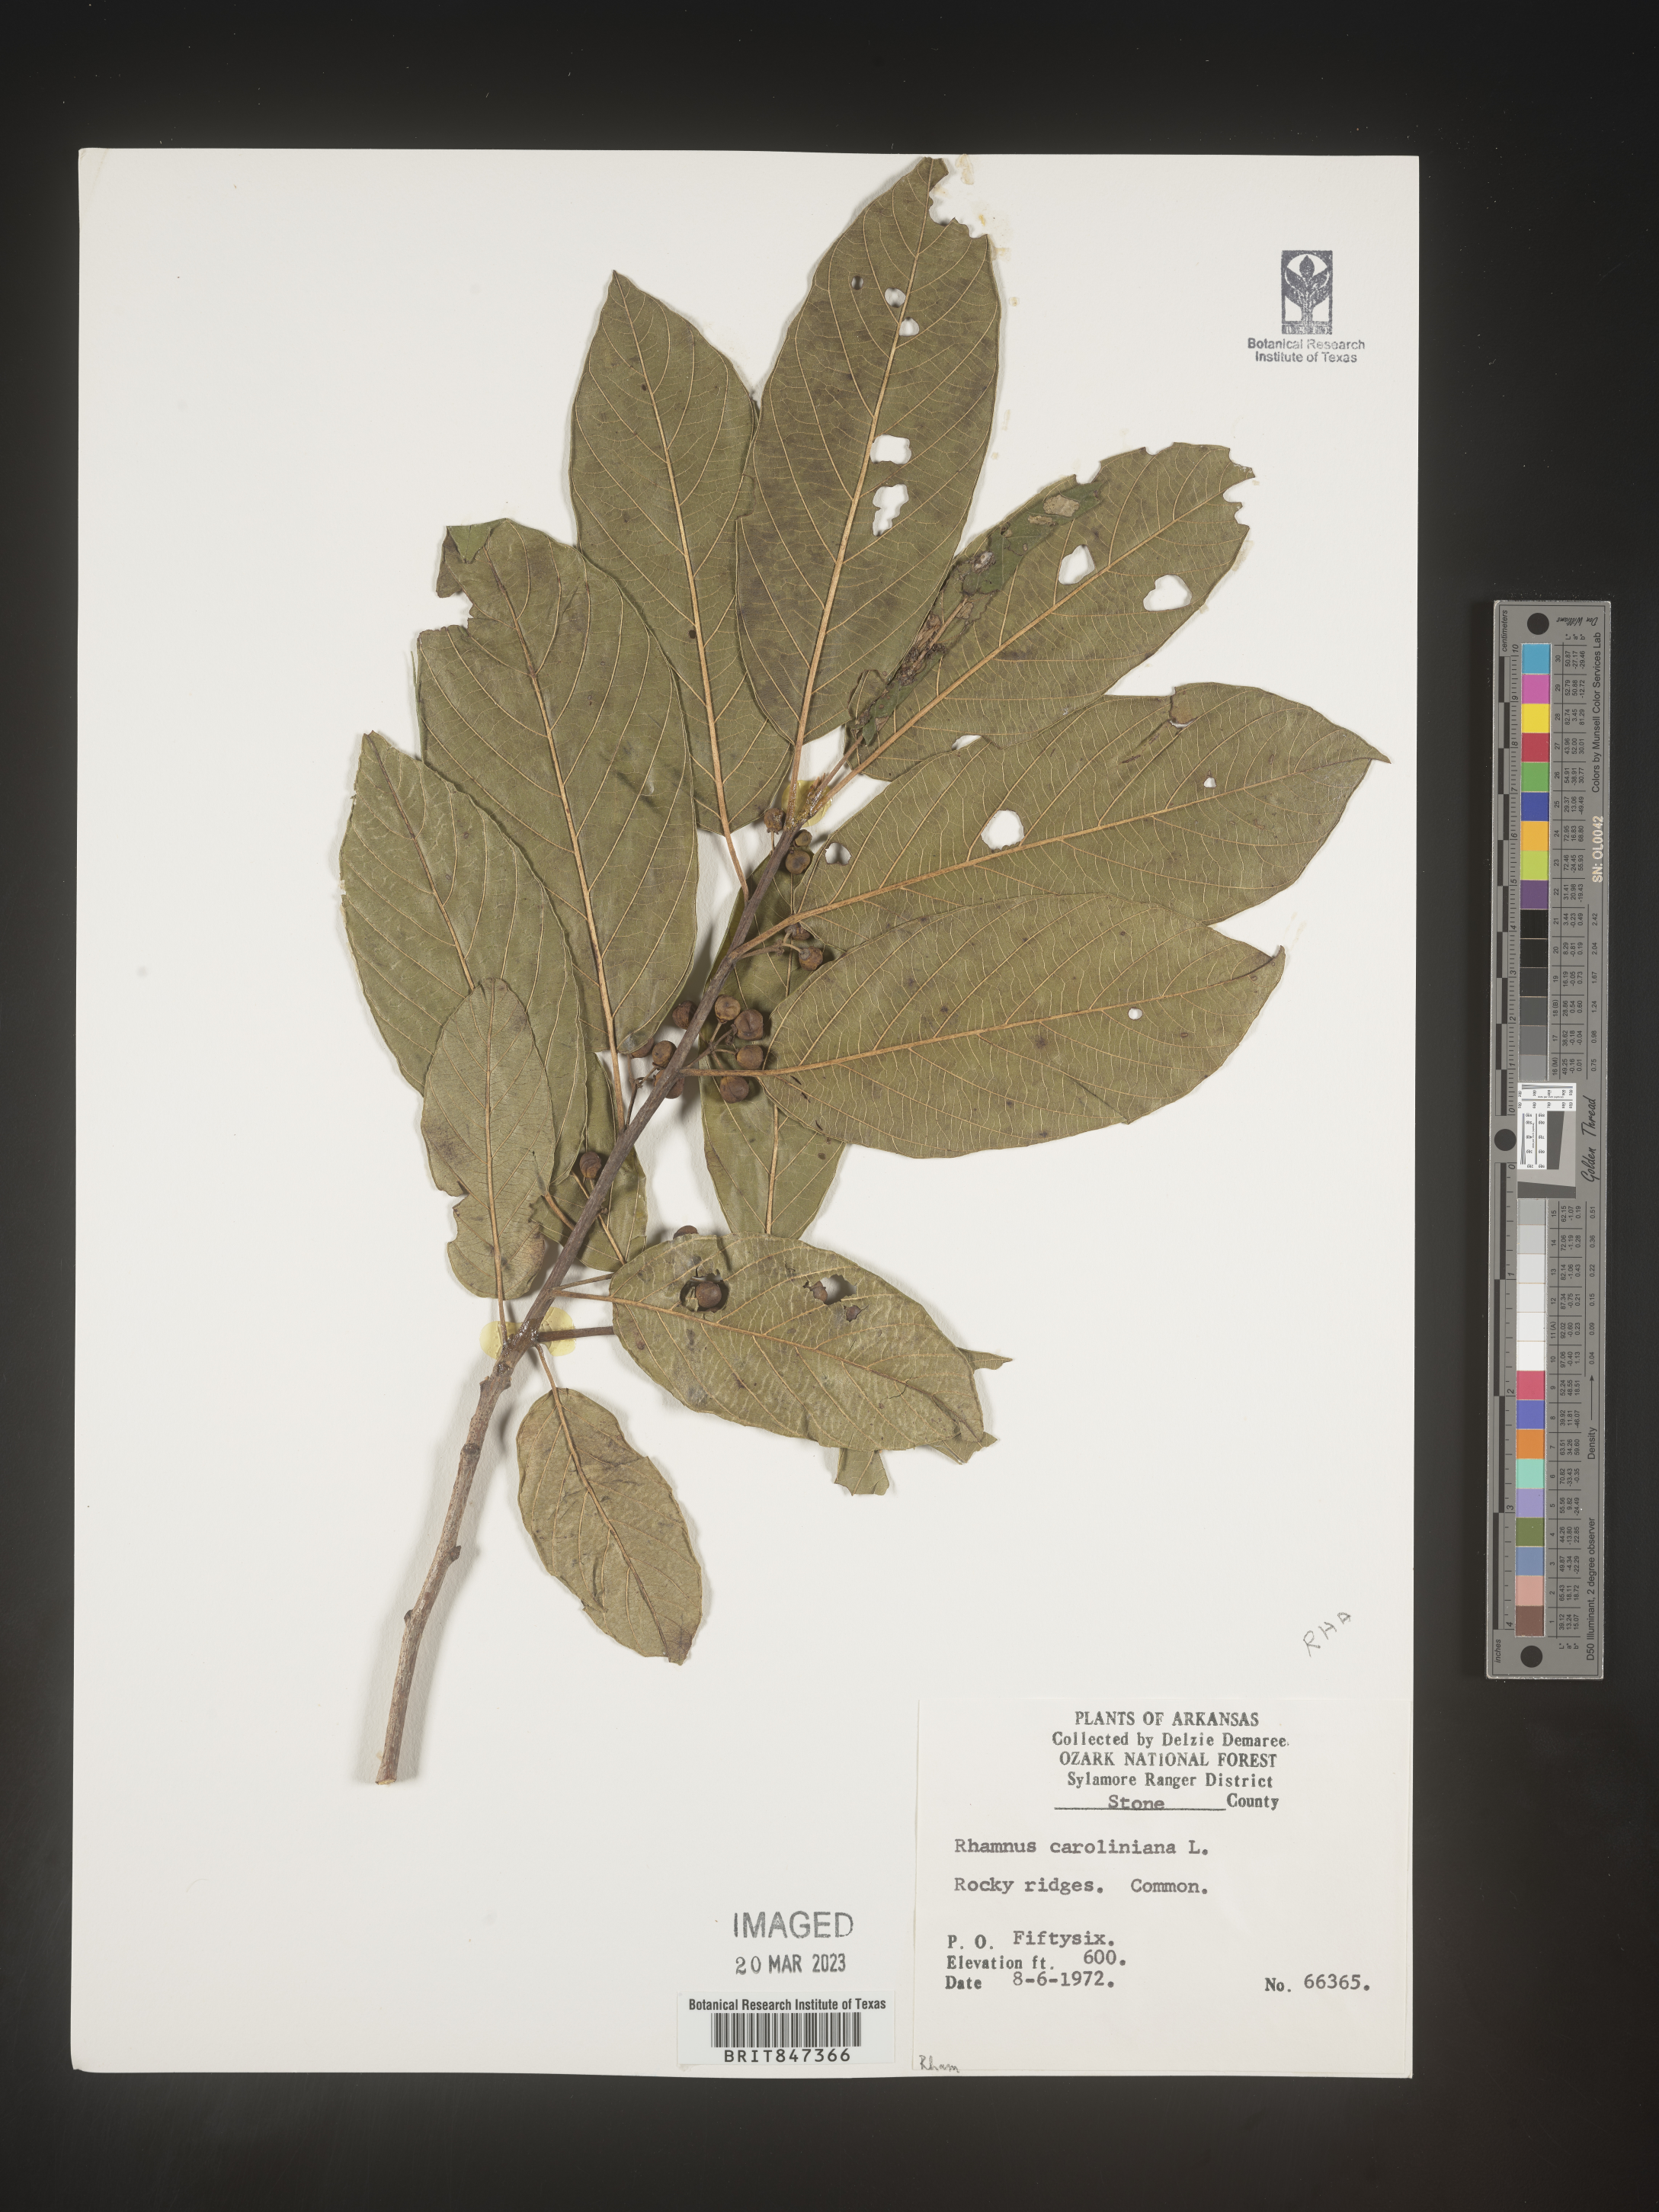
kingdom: Plantae
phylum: Tracheophyta
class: Magnoliopsida
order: Rosales
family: Rhamnaceae
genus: Frangula
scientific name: Frangula caroliniana
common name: Carolina buckthorn
